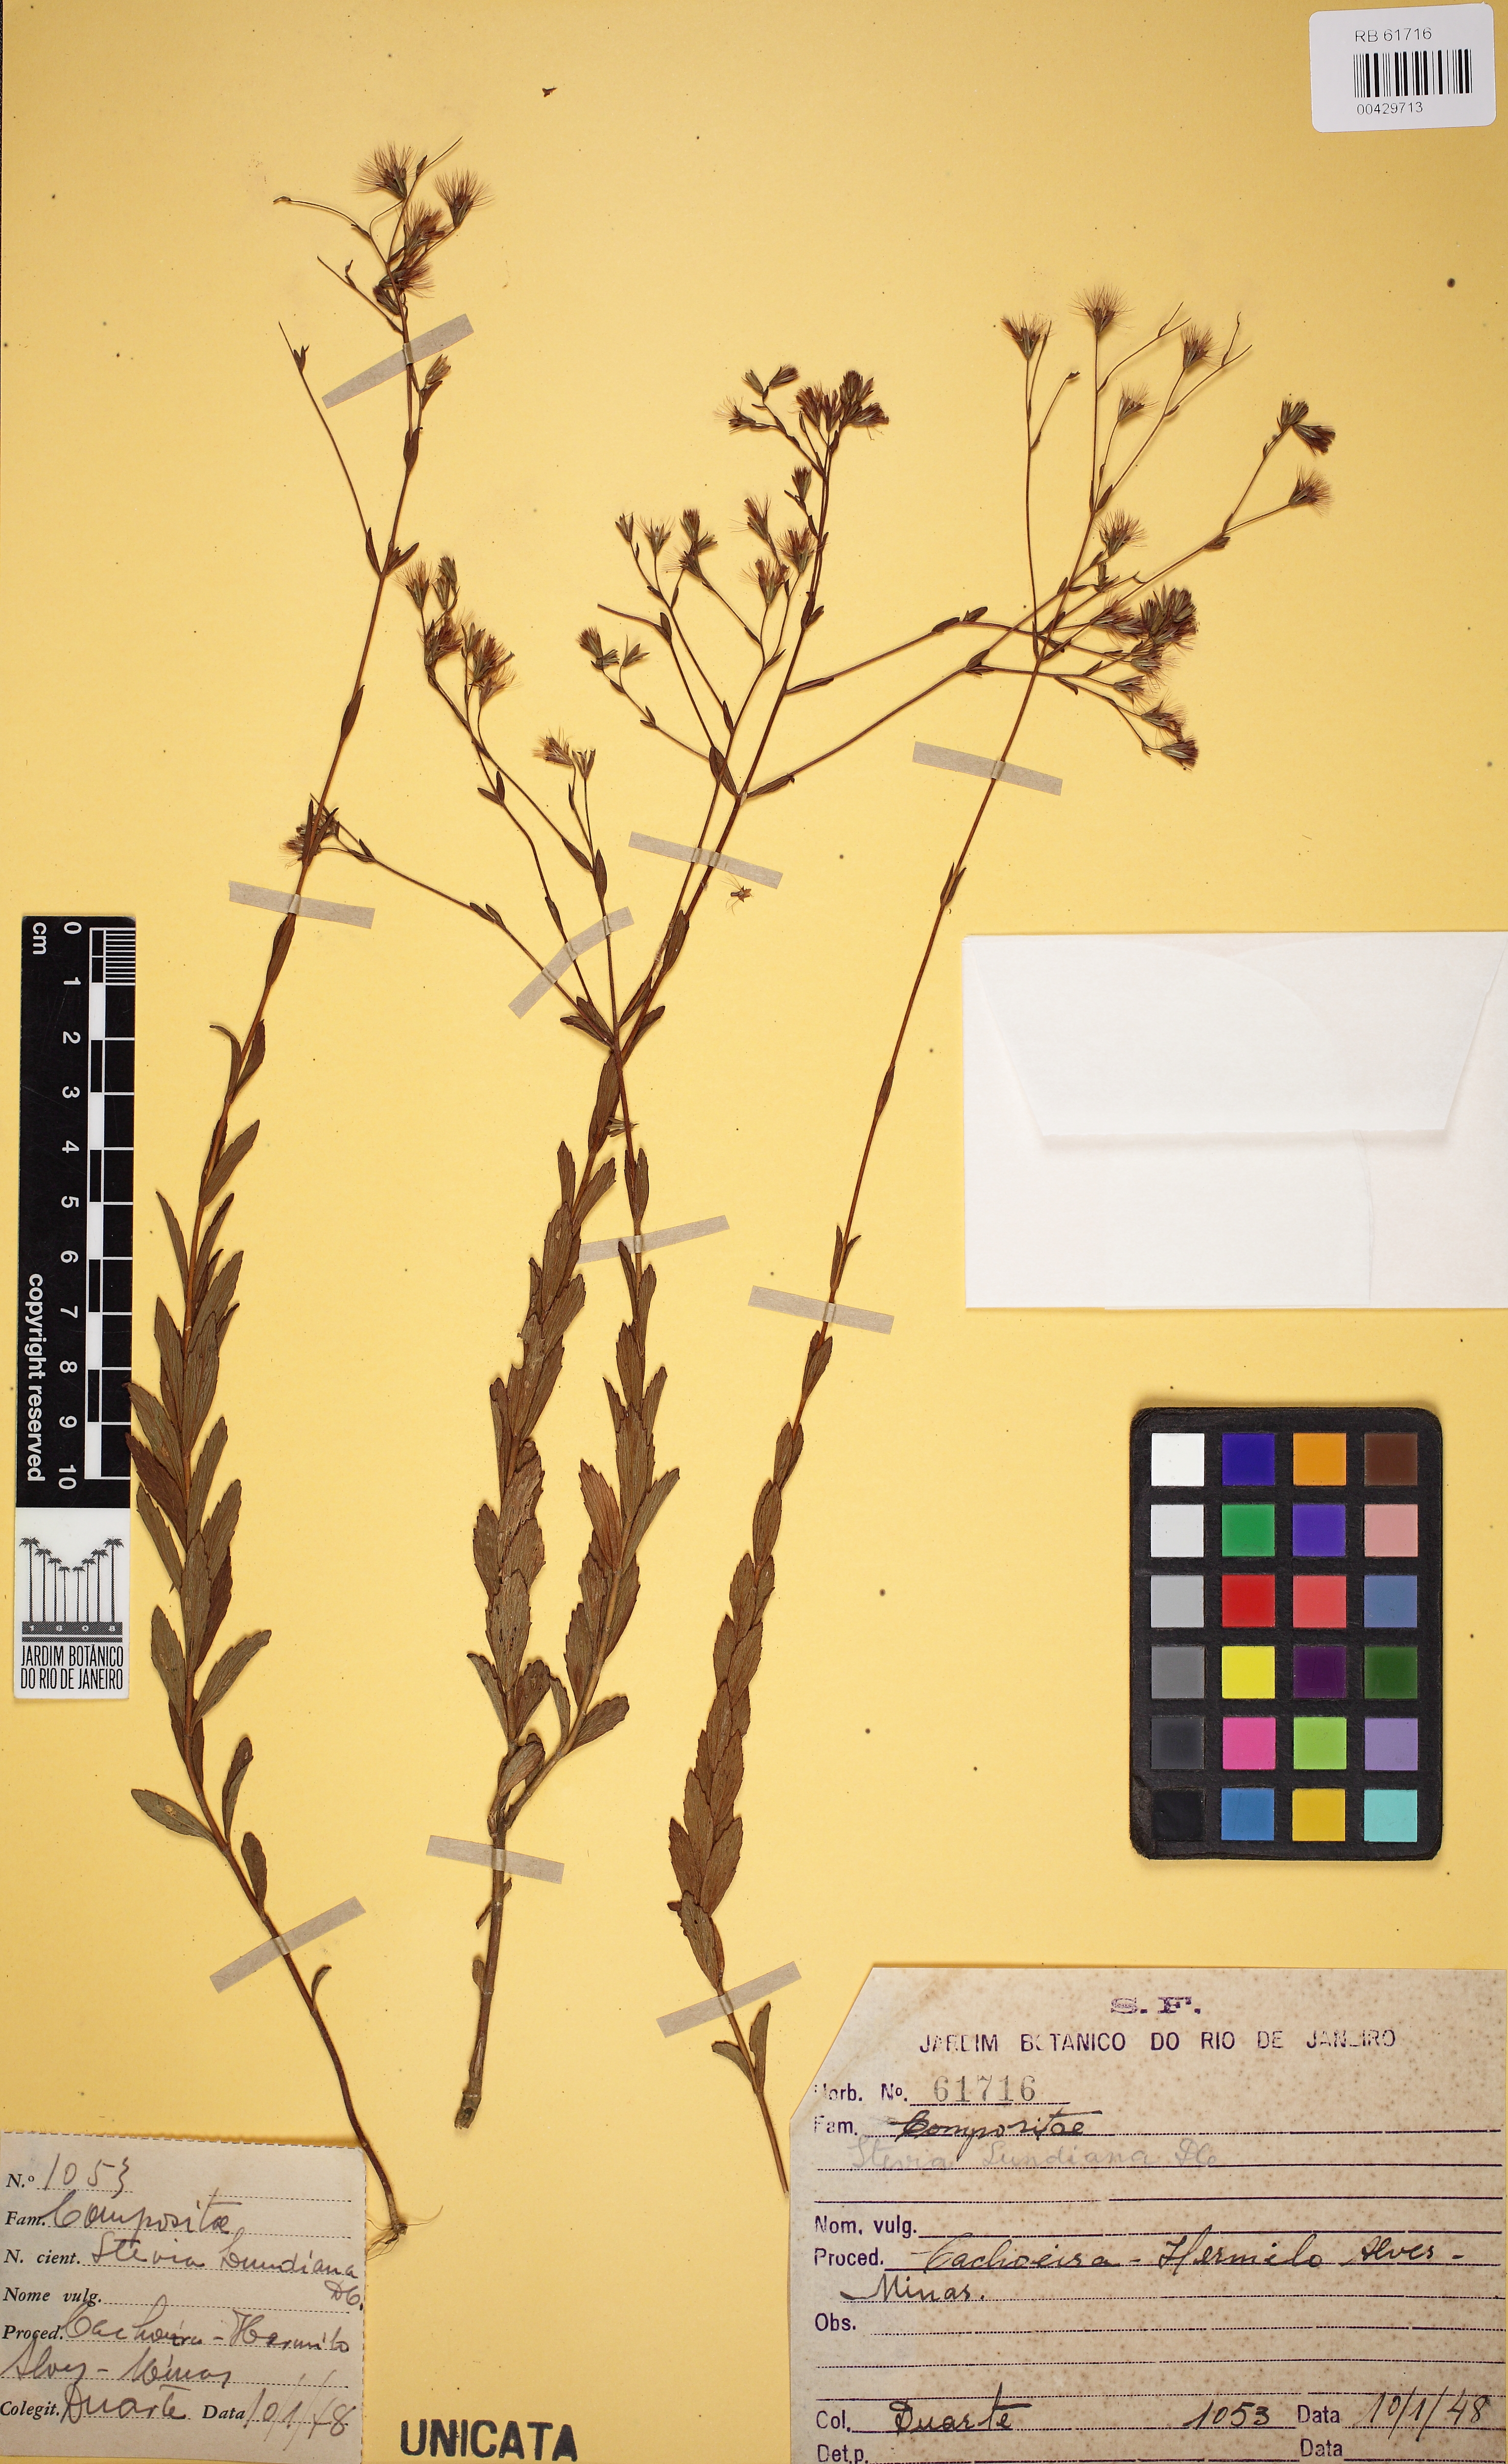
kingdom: Plantae
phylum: Tracheophyta
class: Magnoliopsida
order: Asterales
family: Asteraceae
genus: Stevia
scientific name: Stevia lundiana
